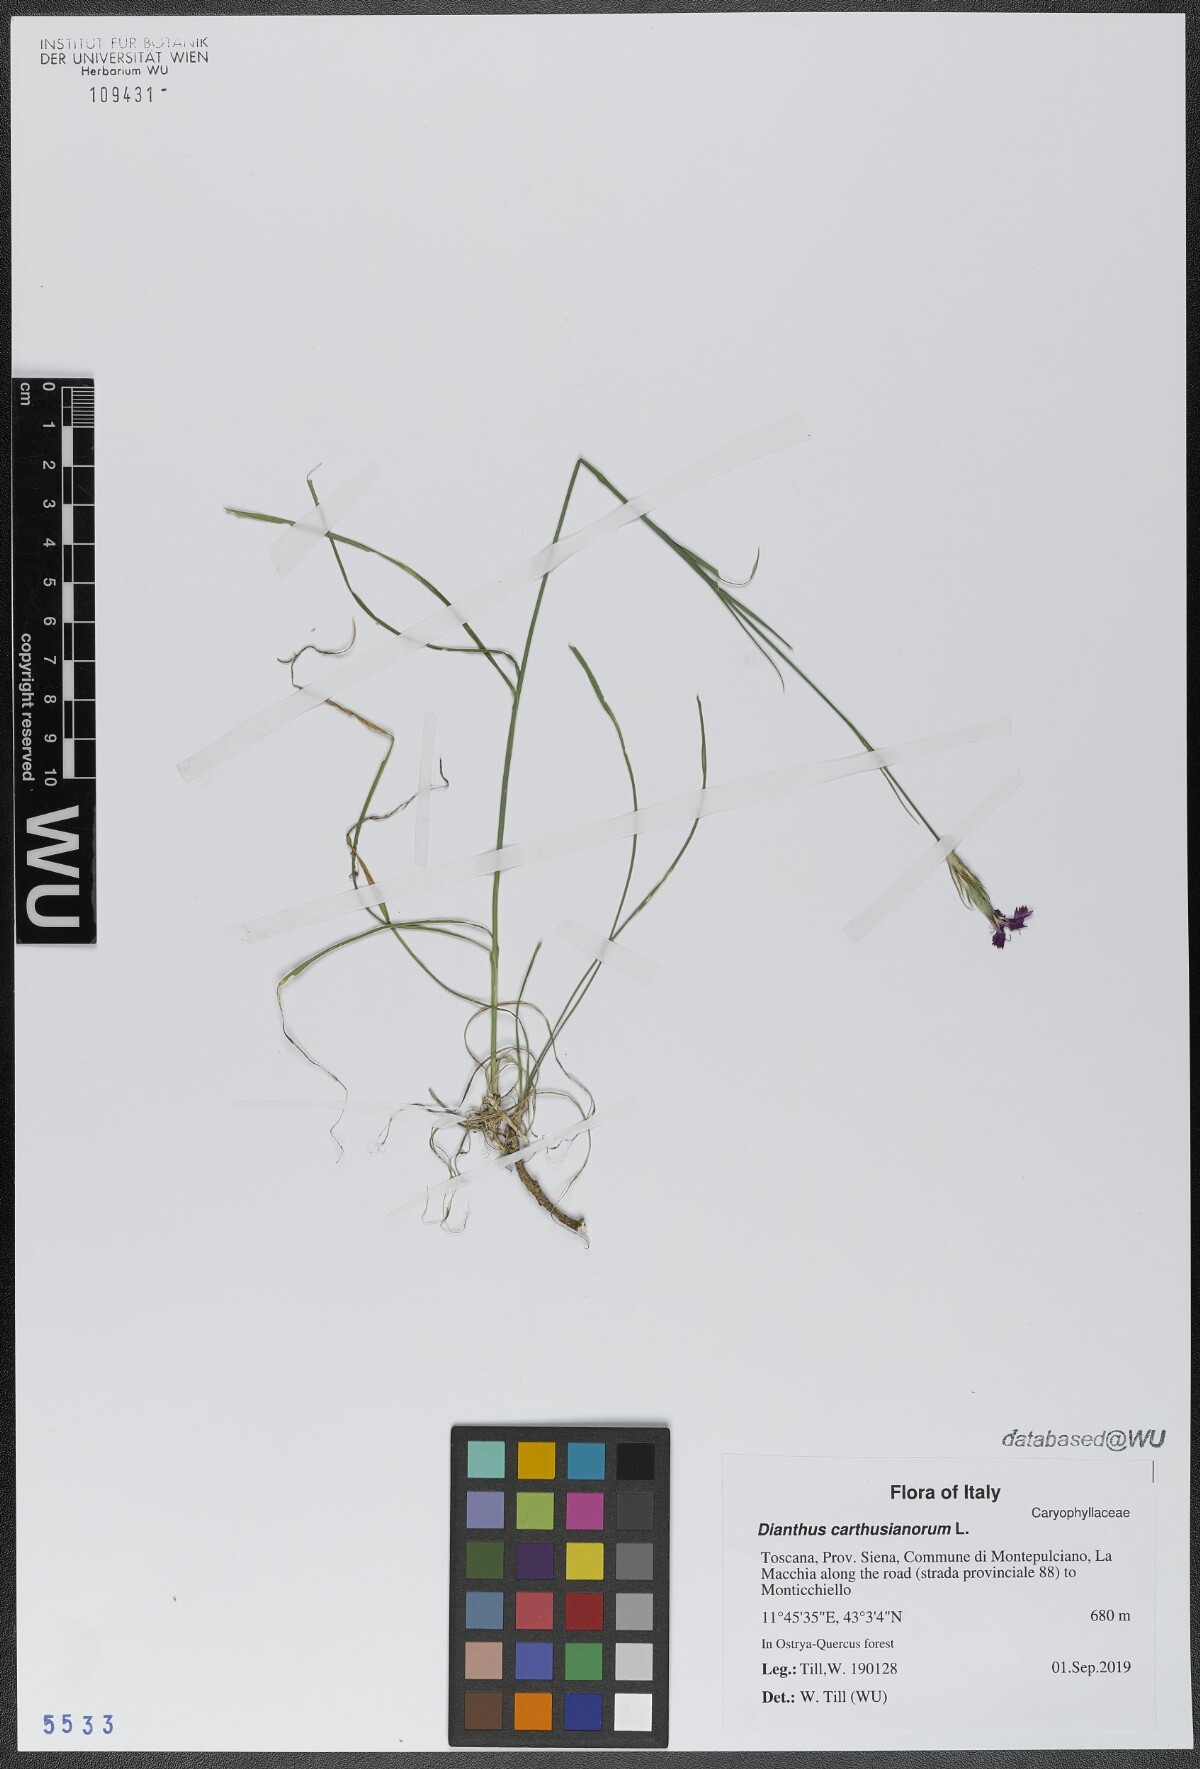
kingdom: Plantae
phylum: Tracheophyta
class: Magnoliopsida
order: Caryophyllales
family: Caryophyllaceae
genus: Dianthus
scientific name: Dianthus carthusianorum
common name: Carthusian pink
